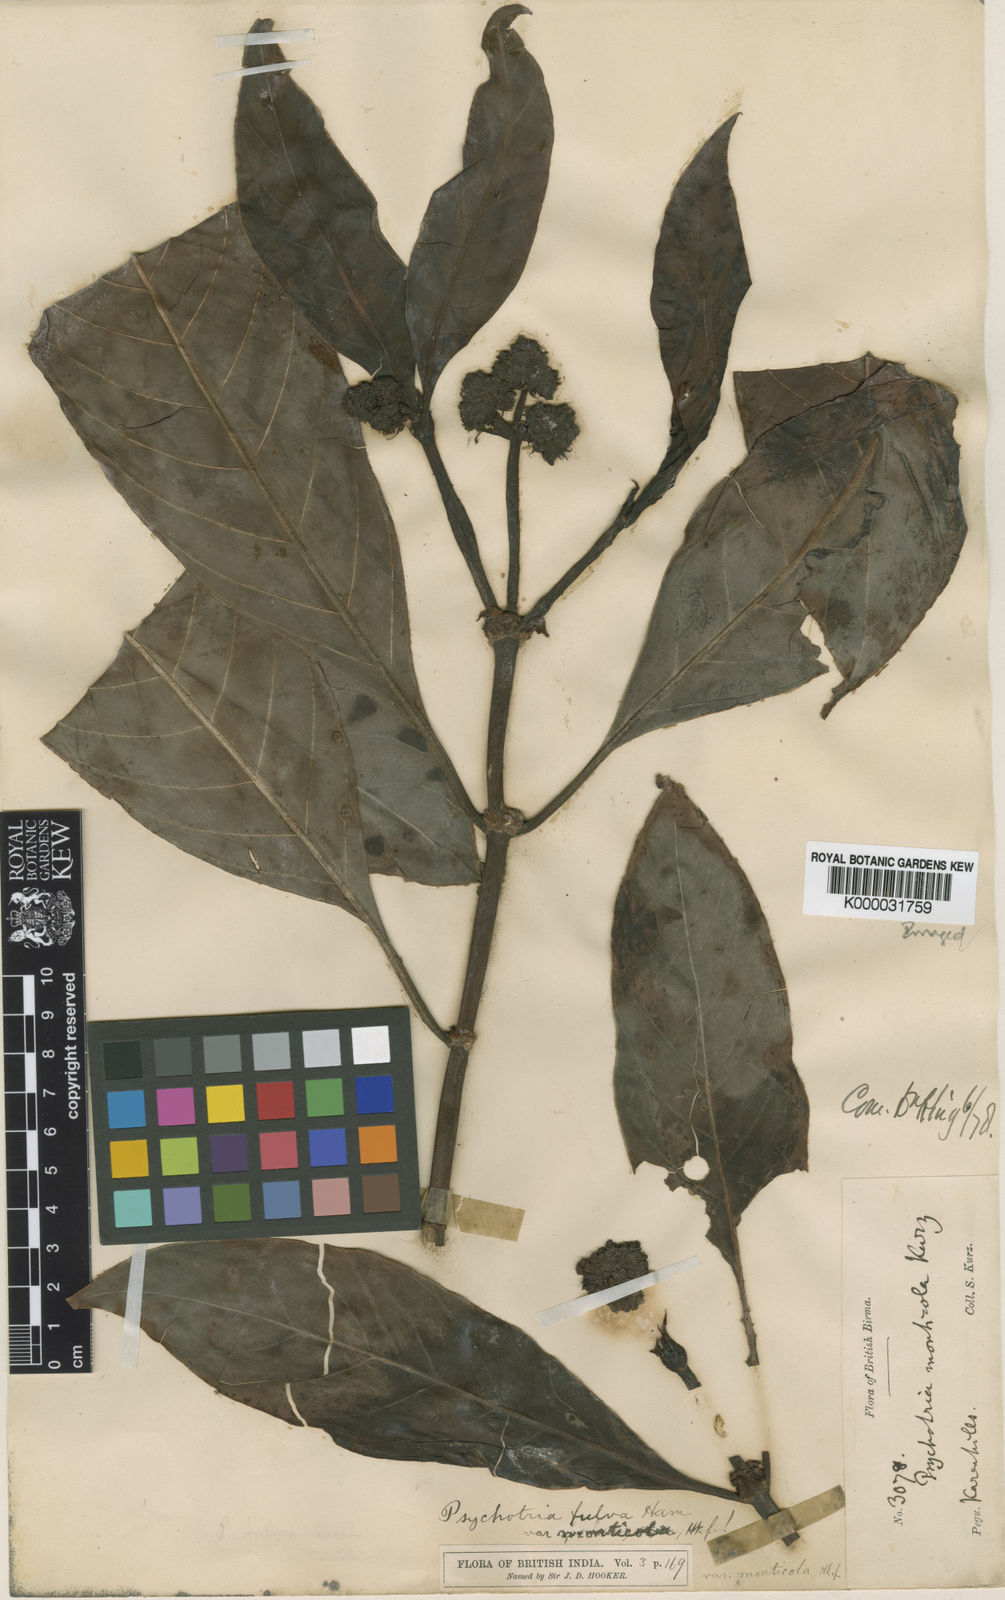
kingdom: Plantae
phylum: Tracheophyta
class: Magnoliopsida
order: Gentianales
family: Rubiaceae
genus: Psychotria
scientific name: Psychotria monticola
